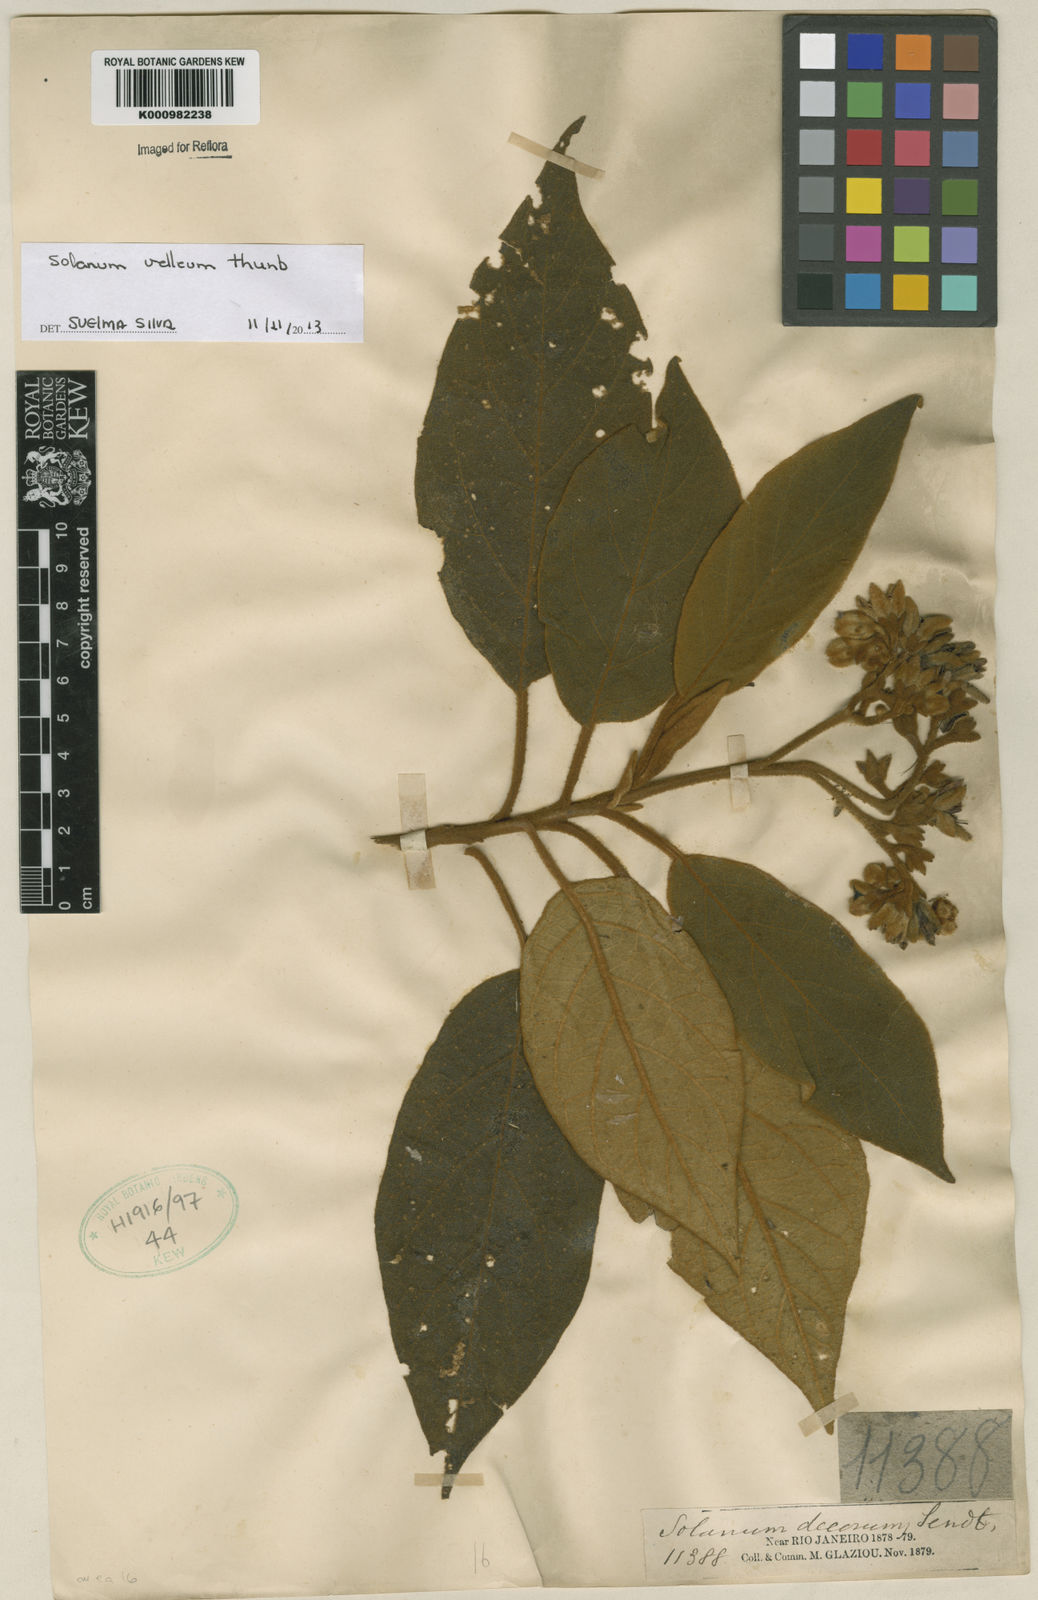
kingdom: Plantae
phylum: Tracheophyta
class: Magnoliopsida
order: Solanales
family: Solanaceae
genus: Solanum
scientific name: Solanum velleum
